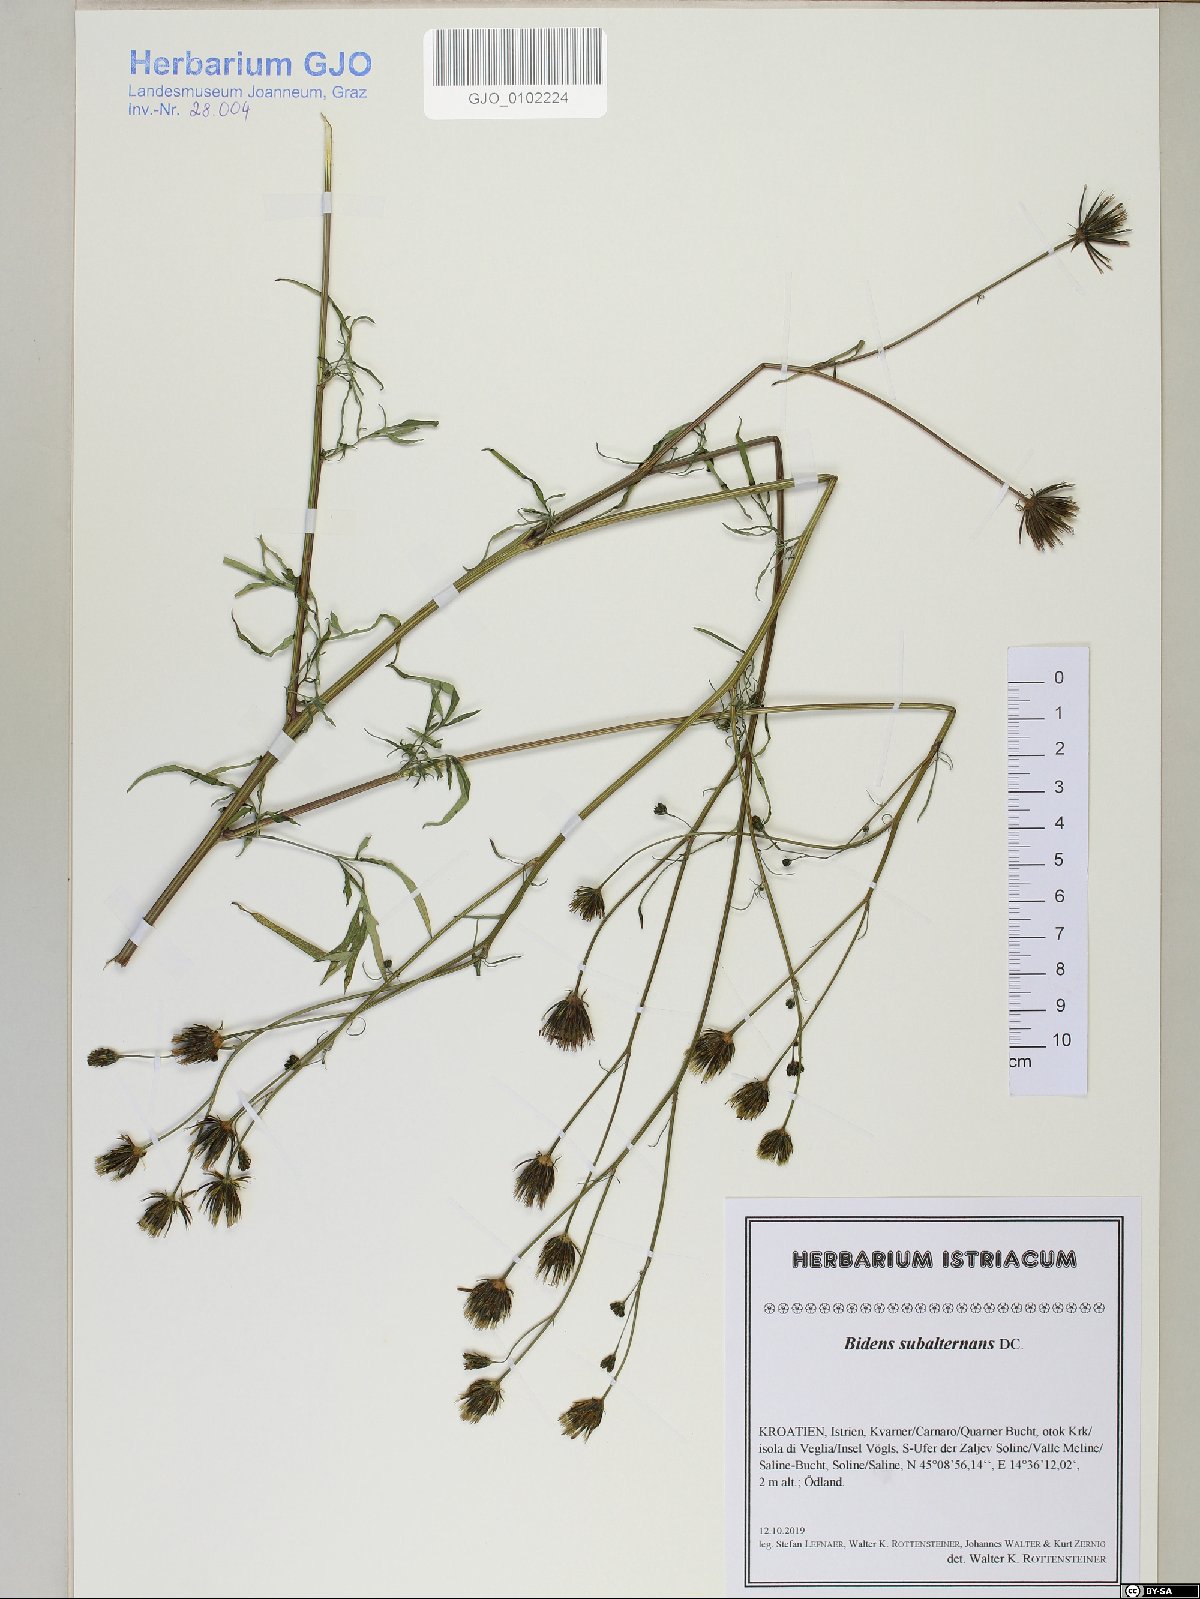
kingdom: Plantae
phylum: Tracheophyta
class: Magnoliopsida
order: Asterales
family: Asteraceae
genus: Bidens
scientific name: Bidens subalternans
